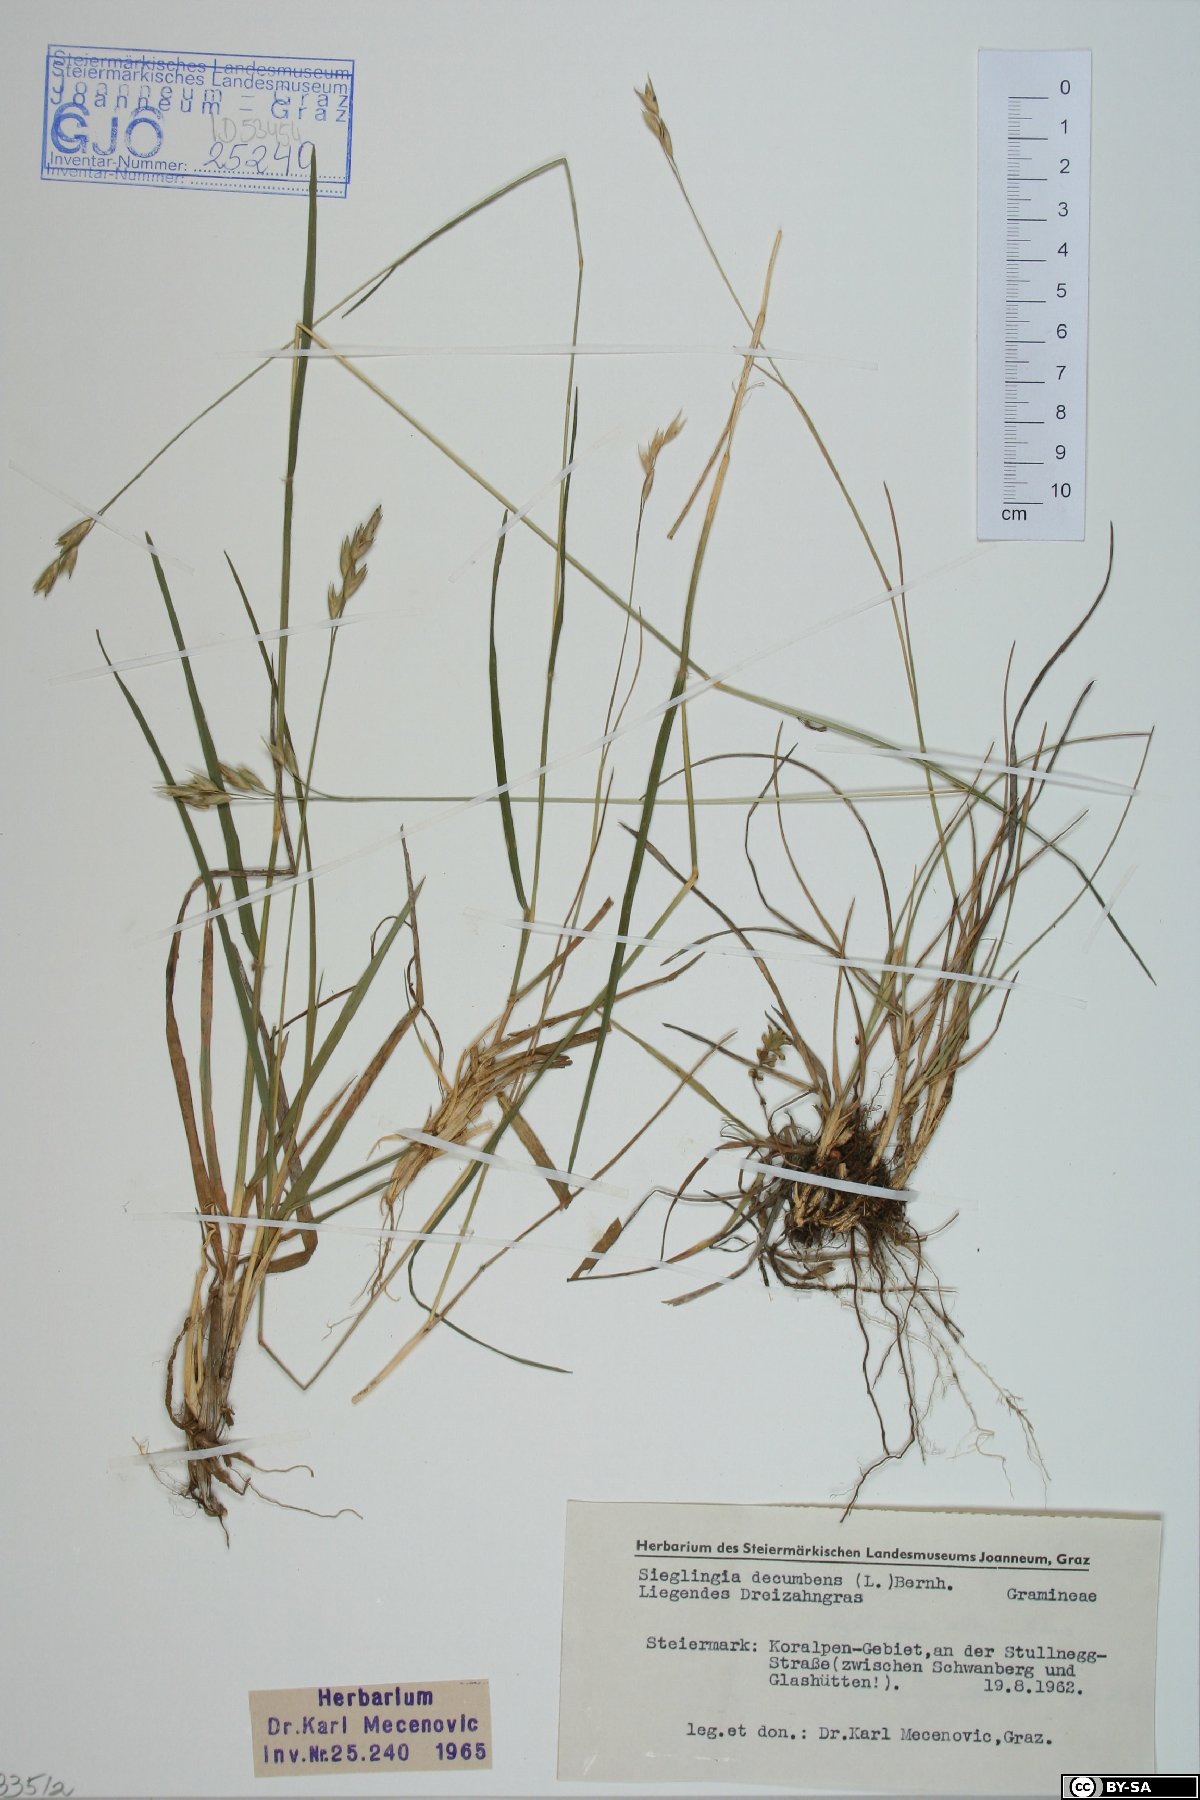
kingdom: Plantae
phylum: Tracheophyta
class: Liliopsida
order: Poales
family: Poaceae
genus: Danthonia
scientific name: Danthonia decumbens
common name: Common heathgrass
